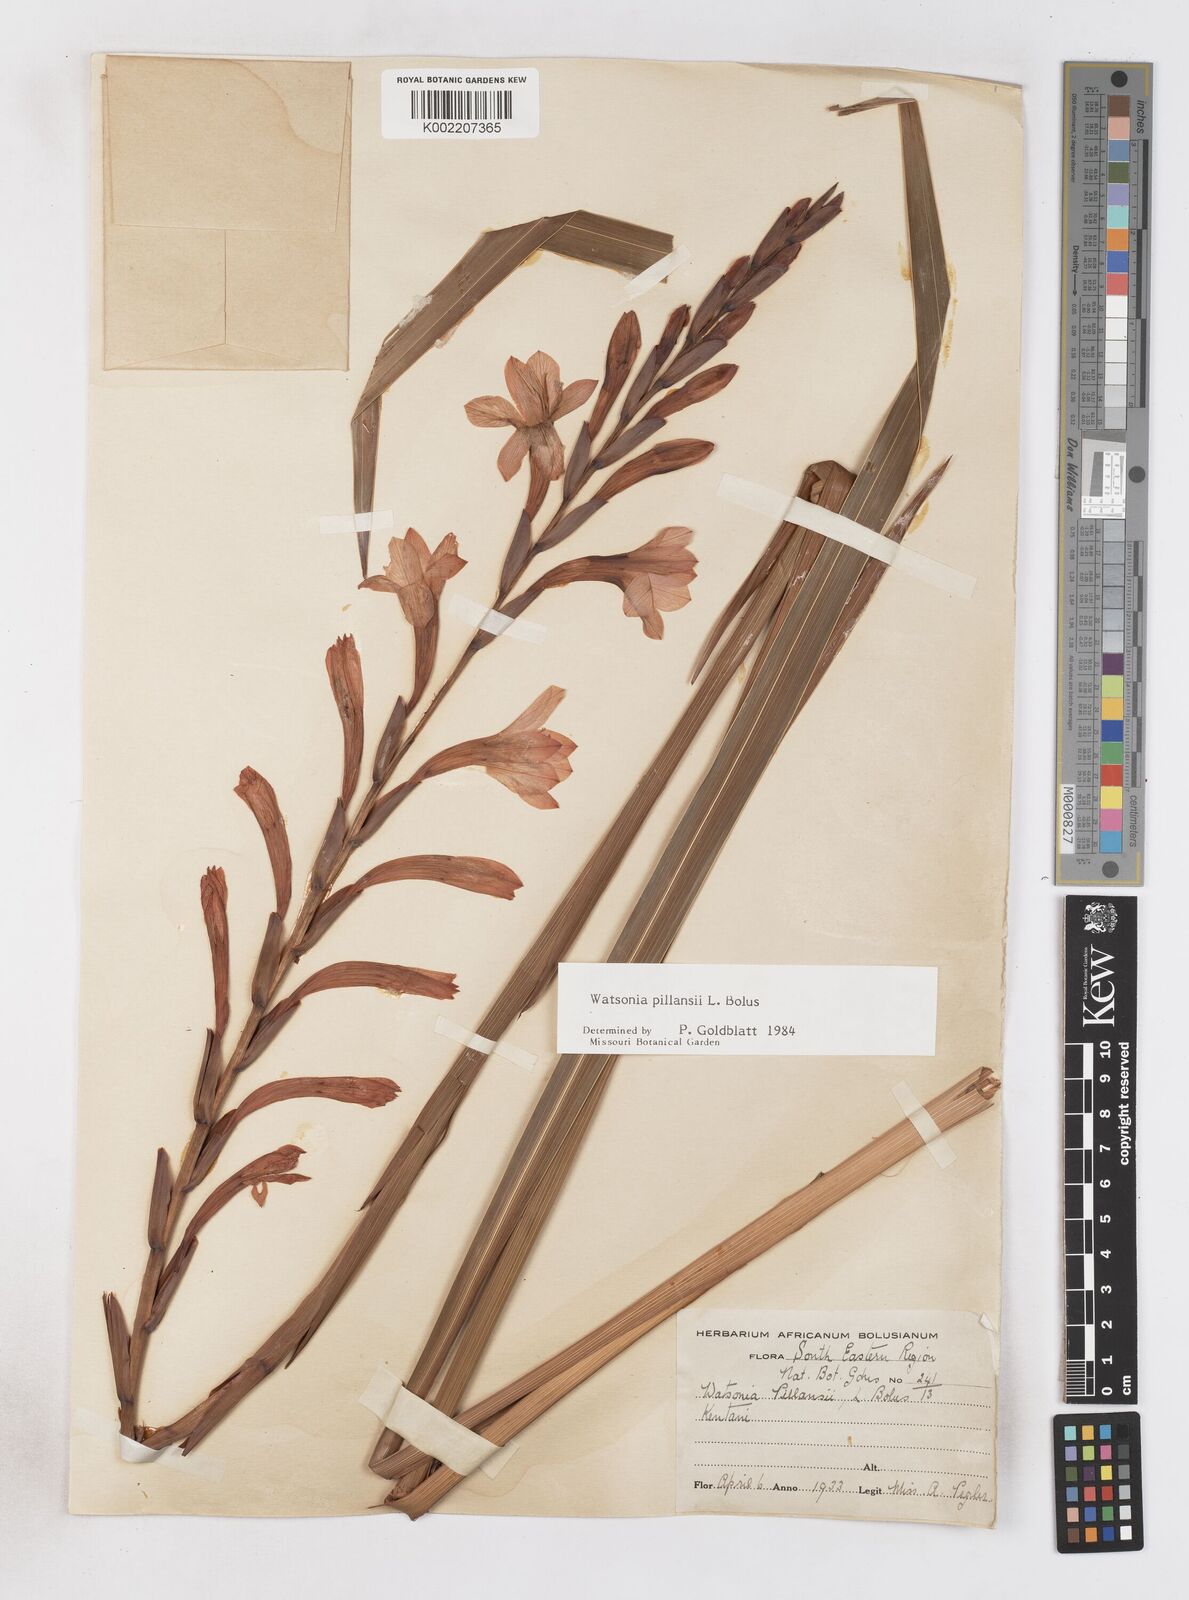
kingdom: Plantae
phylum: Tracheophyta
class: Liliopsida
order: Asparagales
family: Iridaceae
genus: Watsonia
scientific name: Watsonia pillansii
